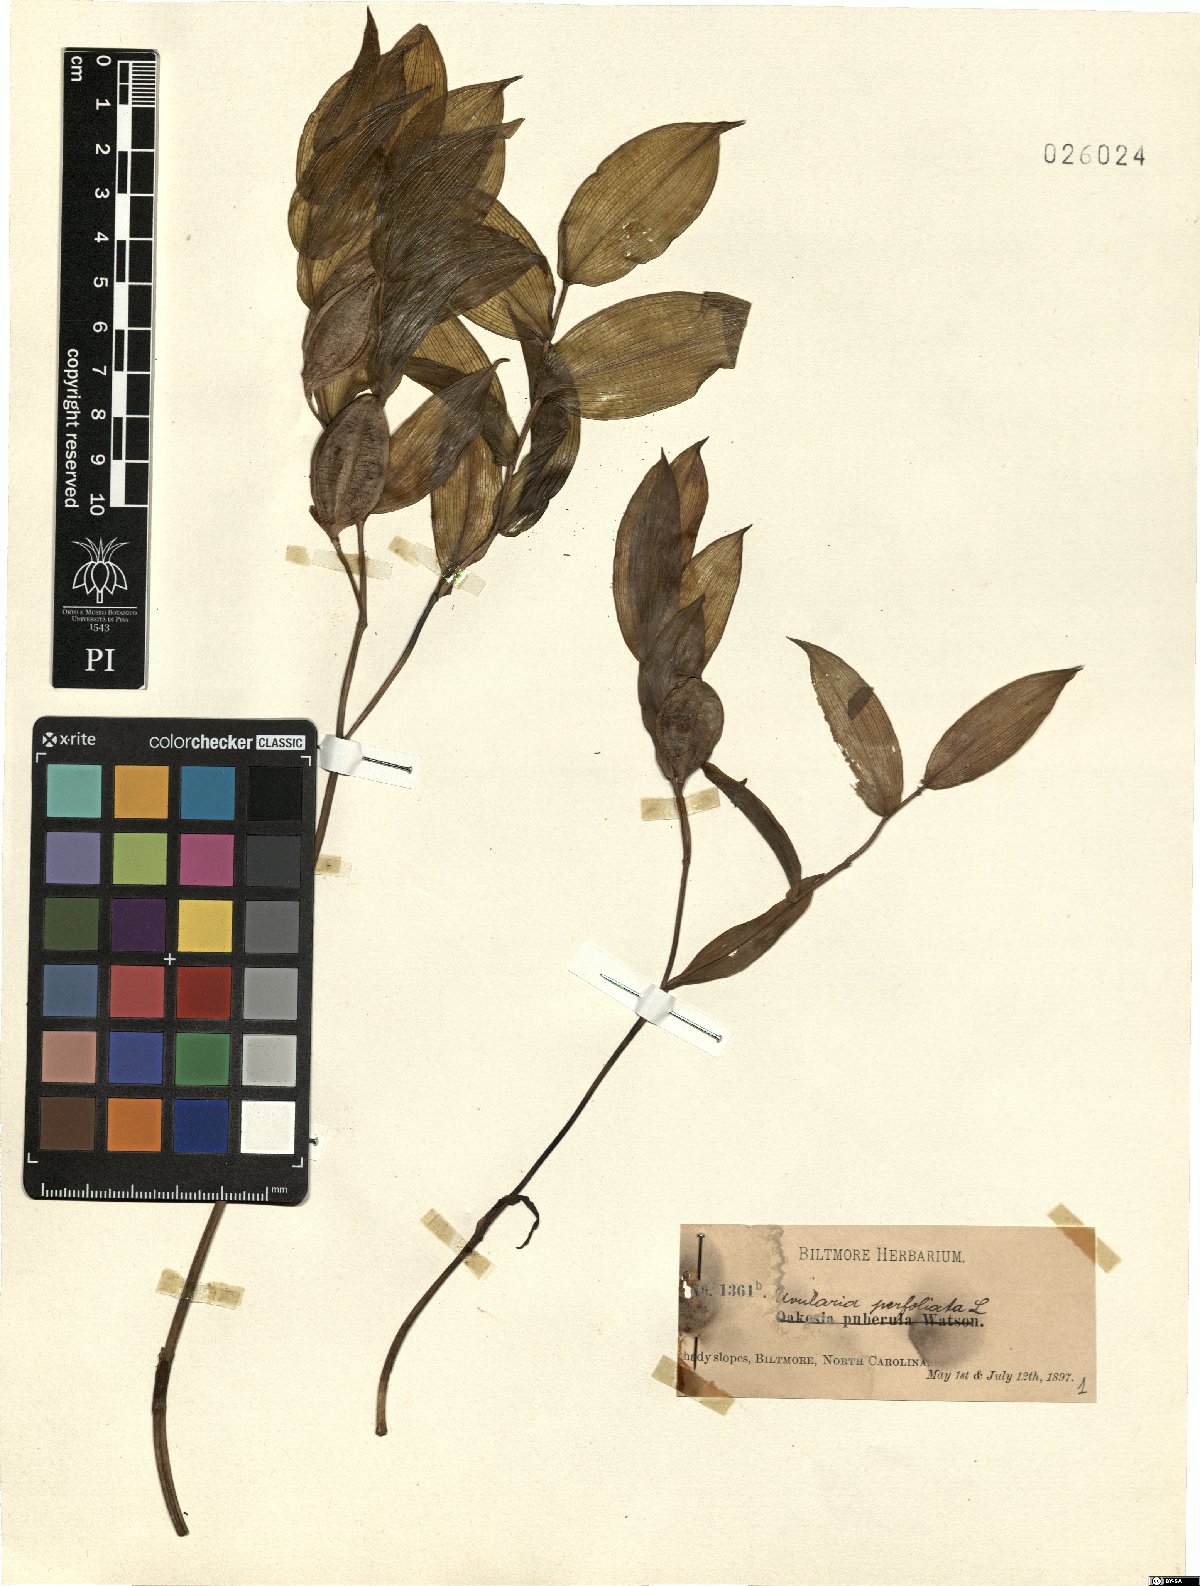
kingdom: Plantae
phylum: Tracheophyta
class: Liliopsida
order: Liliales
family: Colchicaceae
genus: Uvularia
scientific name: Uvularia perfoliata
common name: Perfoliate bellwort
